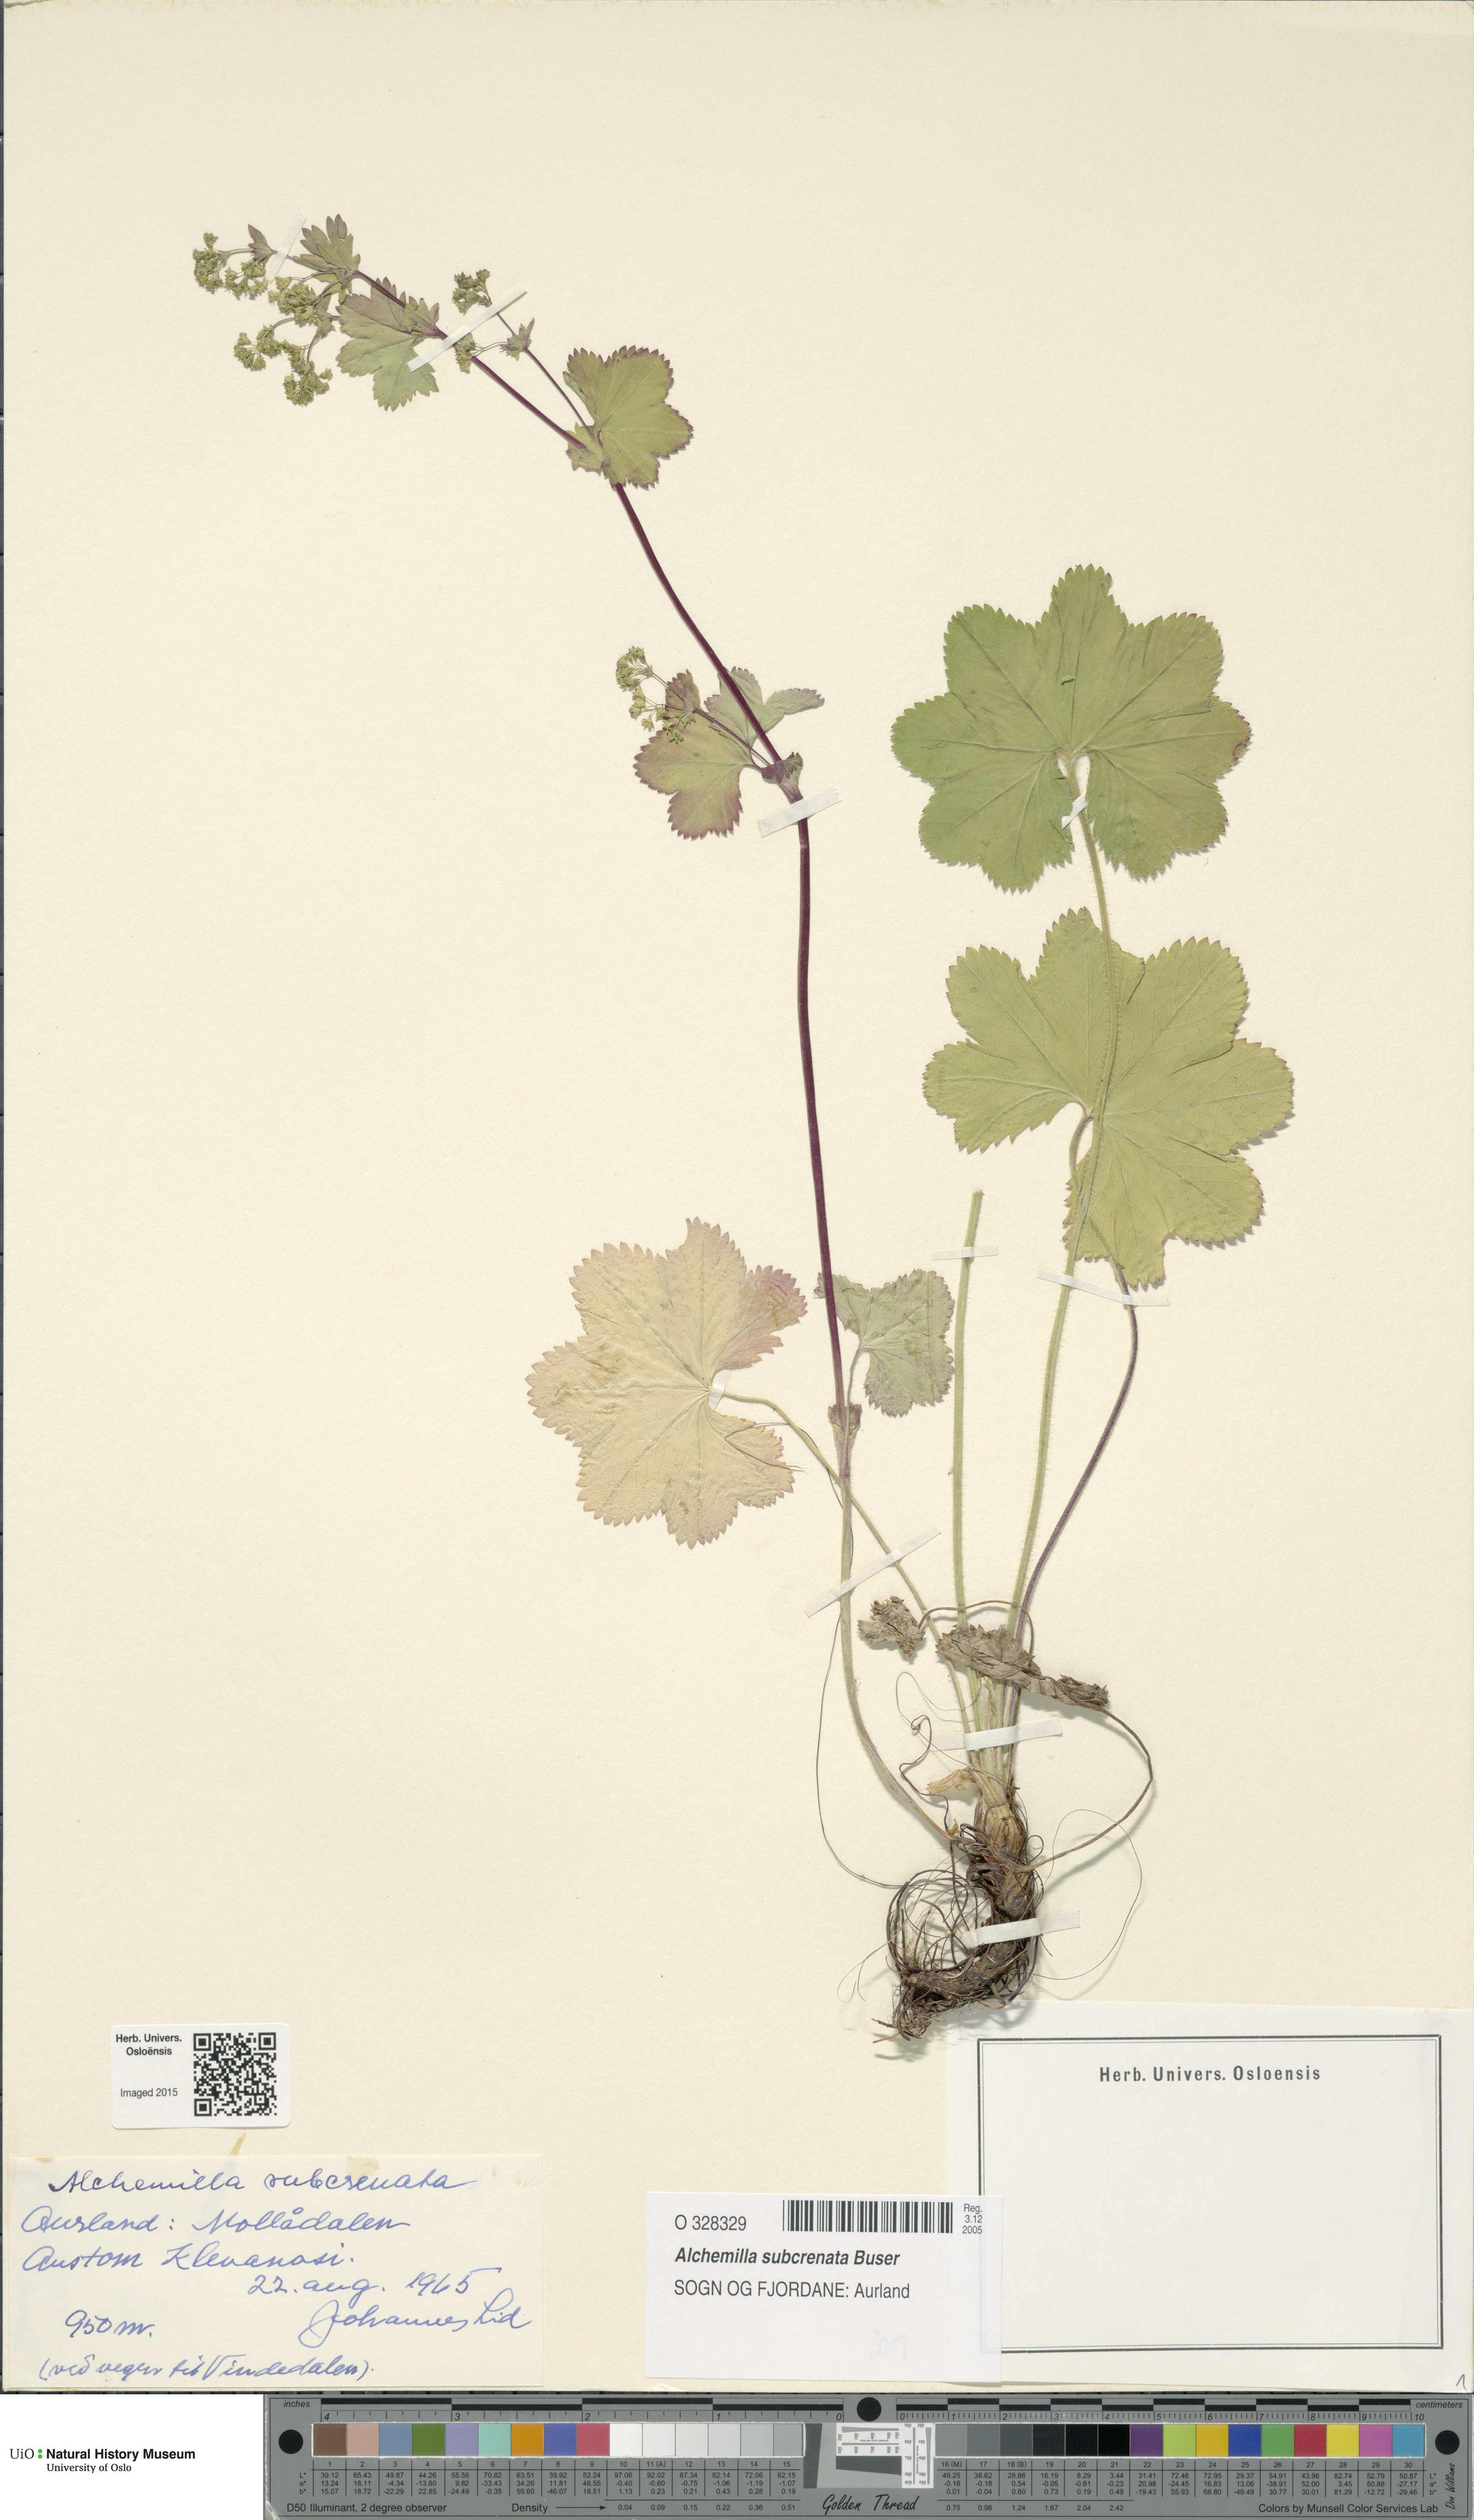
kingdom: Plantae
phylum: Tracheophyta
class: Magnoliopsida
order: Rosales
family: Rosaceae
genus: Alchemilla
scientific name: Alchemilla subcrenata
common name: Broadtooth lady's mantle
